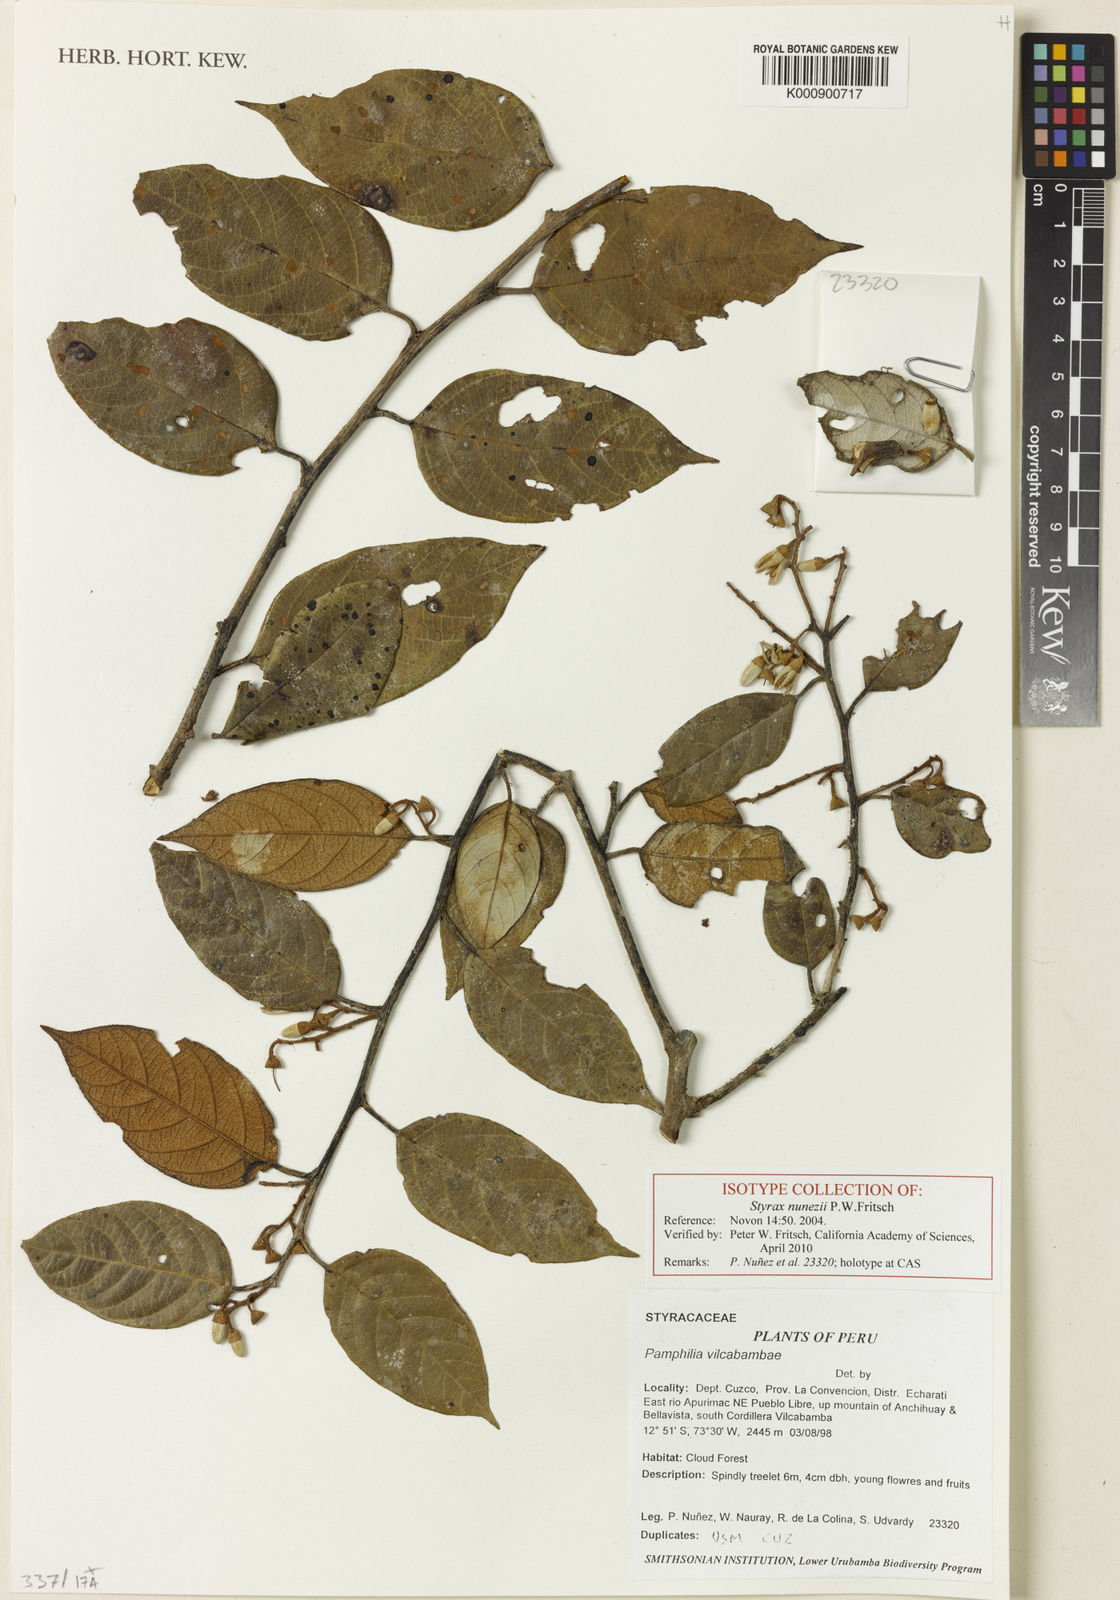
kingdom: Plantae
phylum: Tracheophyta
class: Magnoliopsida
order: Ericales
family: Styracaceae
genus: Styrax
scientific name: Styrax nunezii
